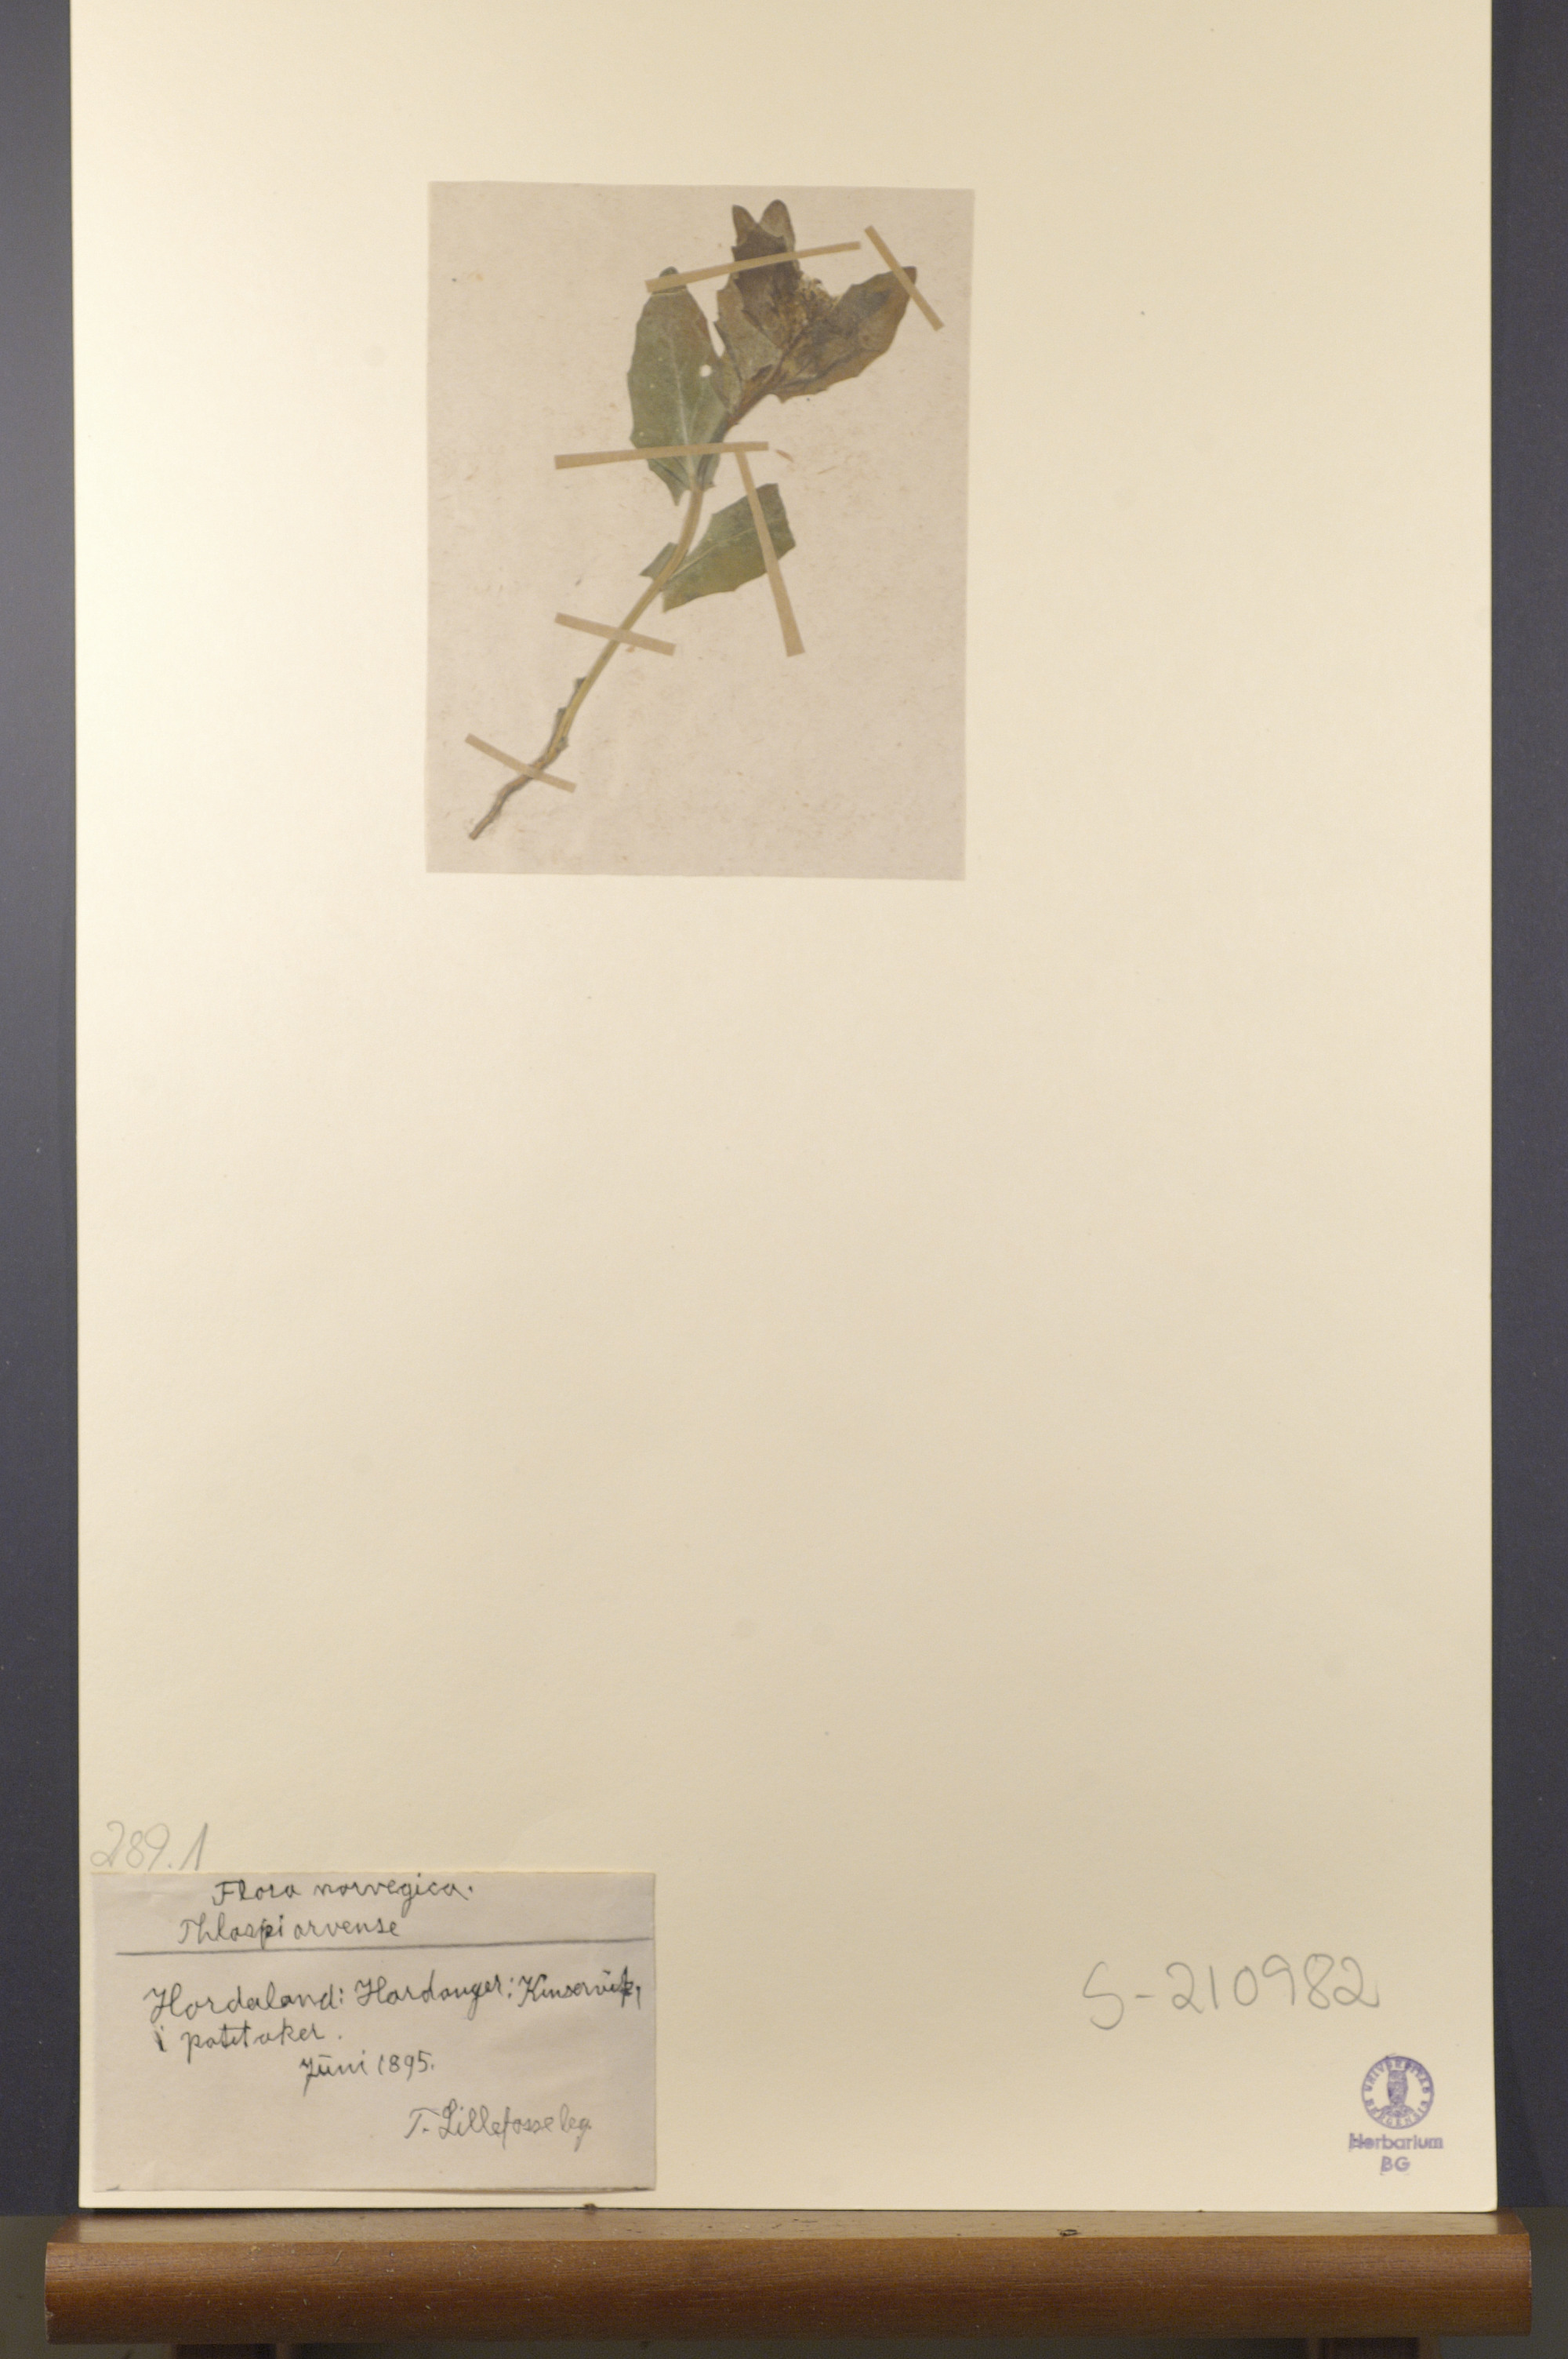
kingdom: Plantae
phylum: Tracheophyta
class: Magnoliopsida
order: Brassicales
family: Brassicaceae
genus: Thlaspi
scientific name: Thlaspi arvense
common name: Field pennycress
